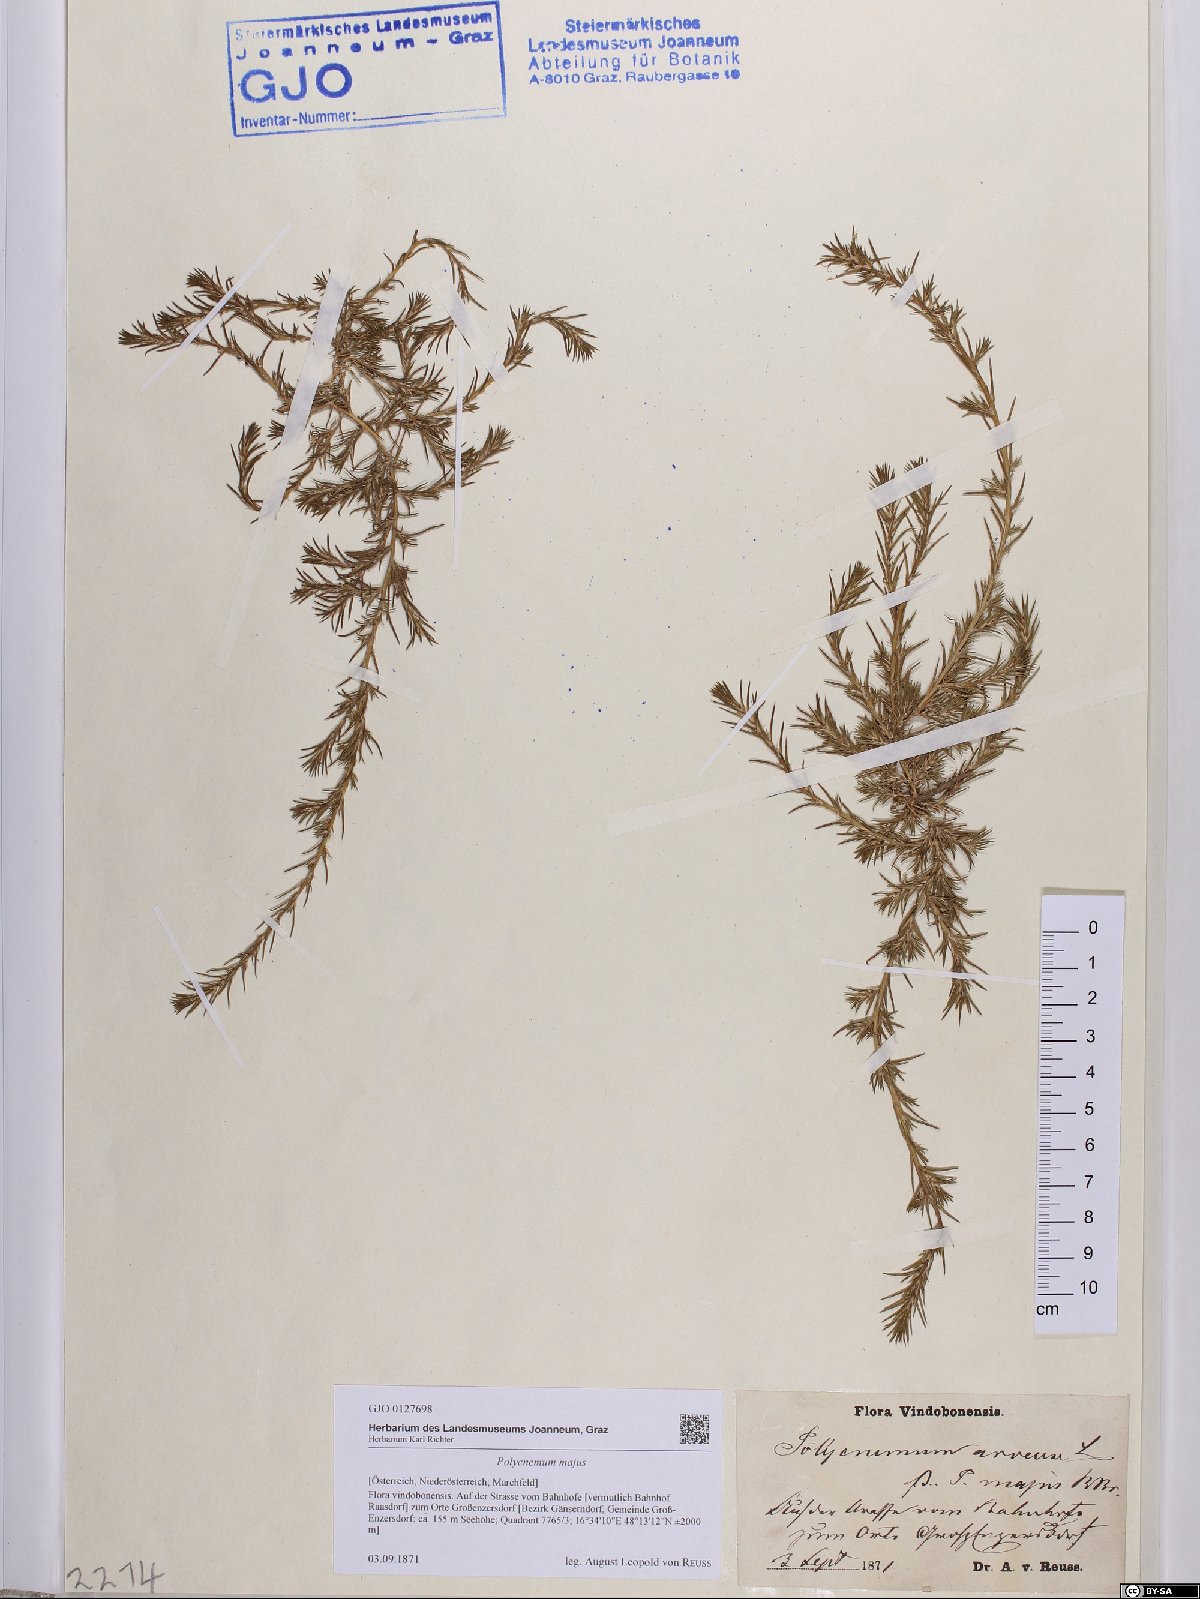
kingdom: Plantae
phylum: Tracheophyta
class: Magnoliopsida
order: Caryophyllales
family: Amaranthaceae
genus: Polycnemum
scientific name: Polycnemum majus
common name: Giant needleleaf
